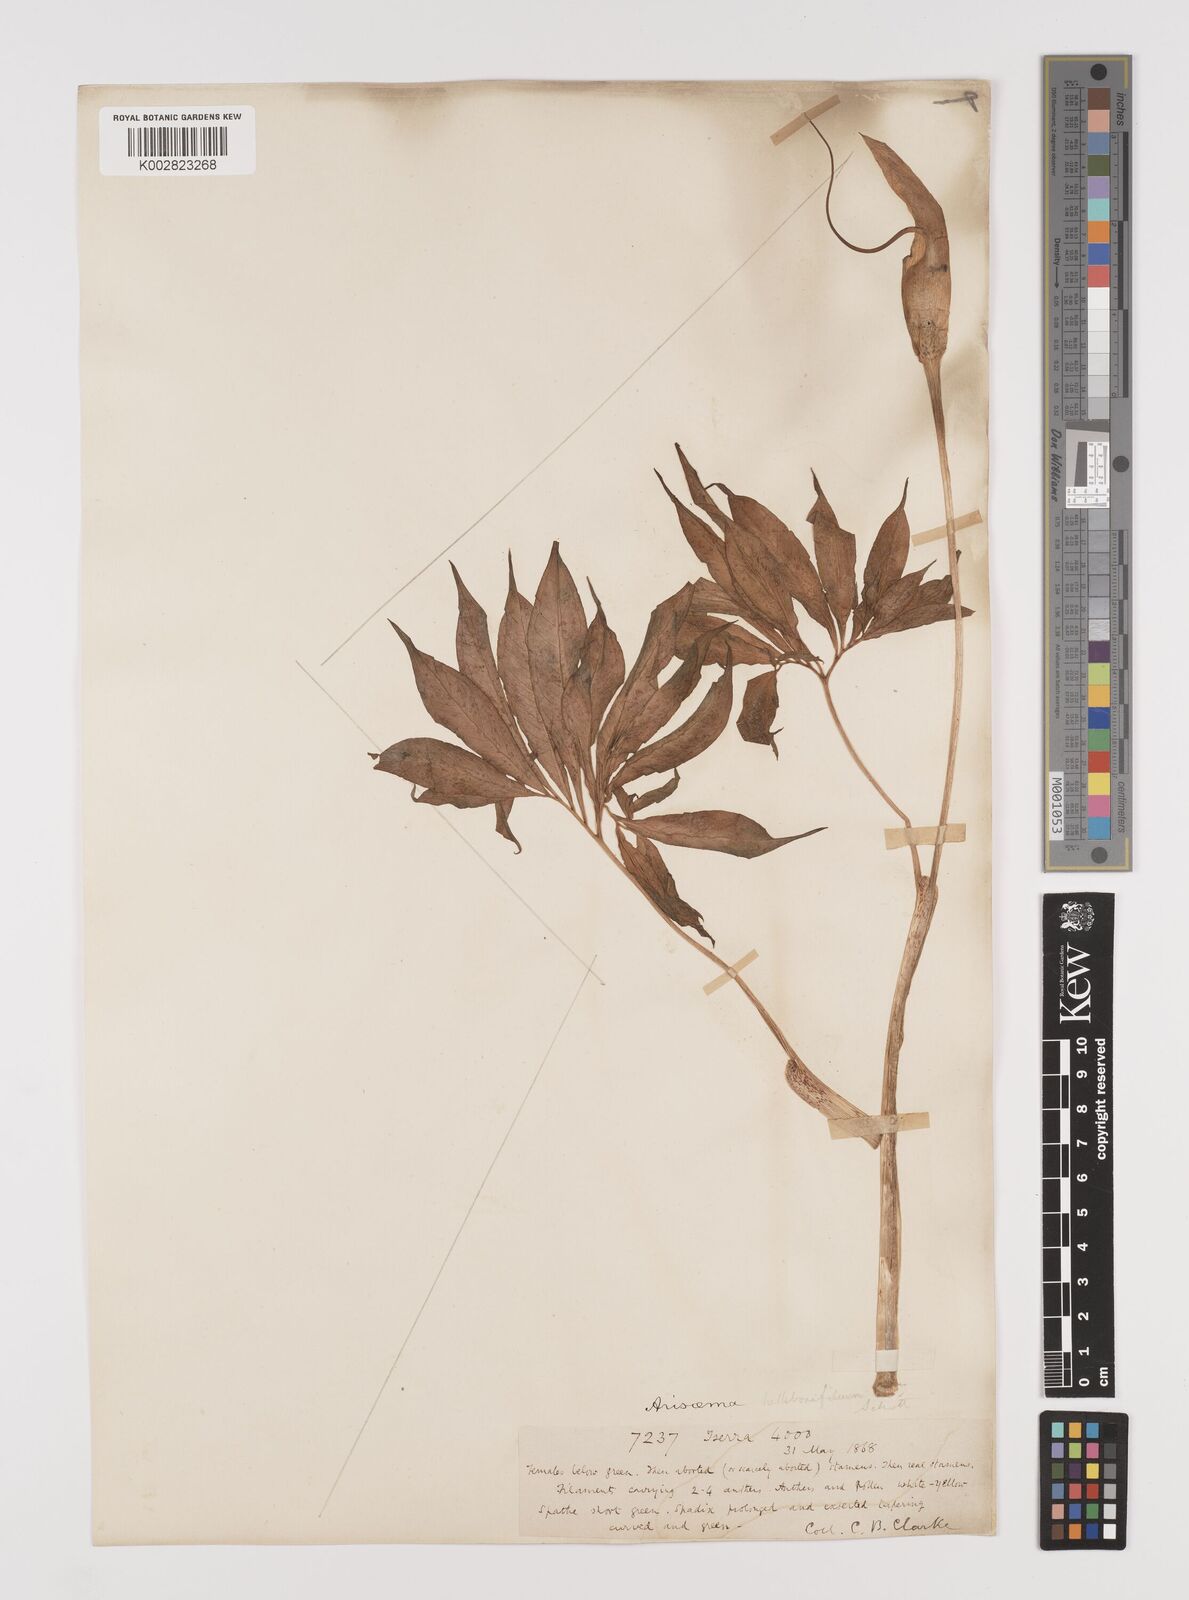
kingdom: Plantae
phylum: Tracheophyta
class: Liliopsida
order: Alismatales
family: Araceae
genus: Arisaema
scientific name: Arisaema tortuosum
